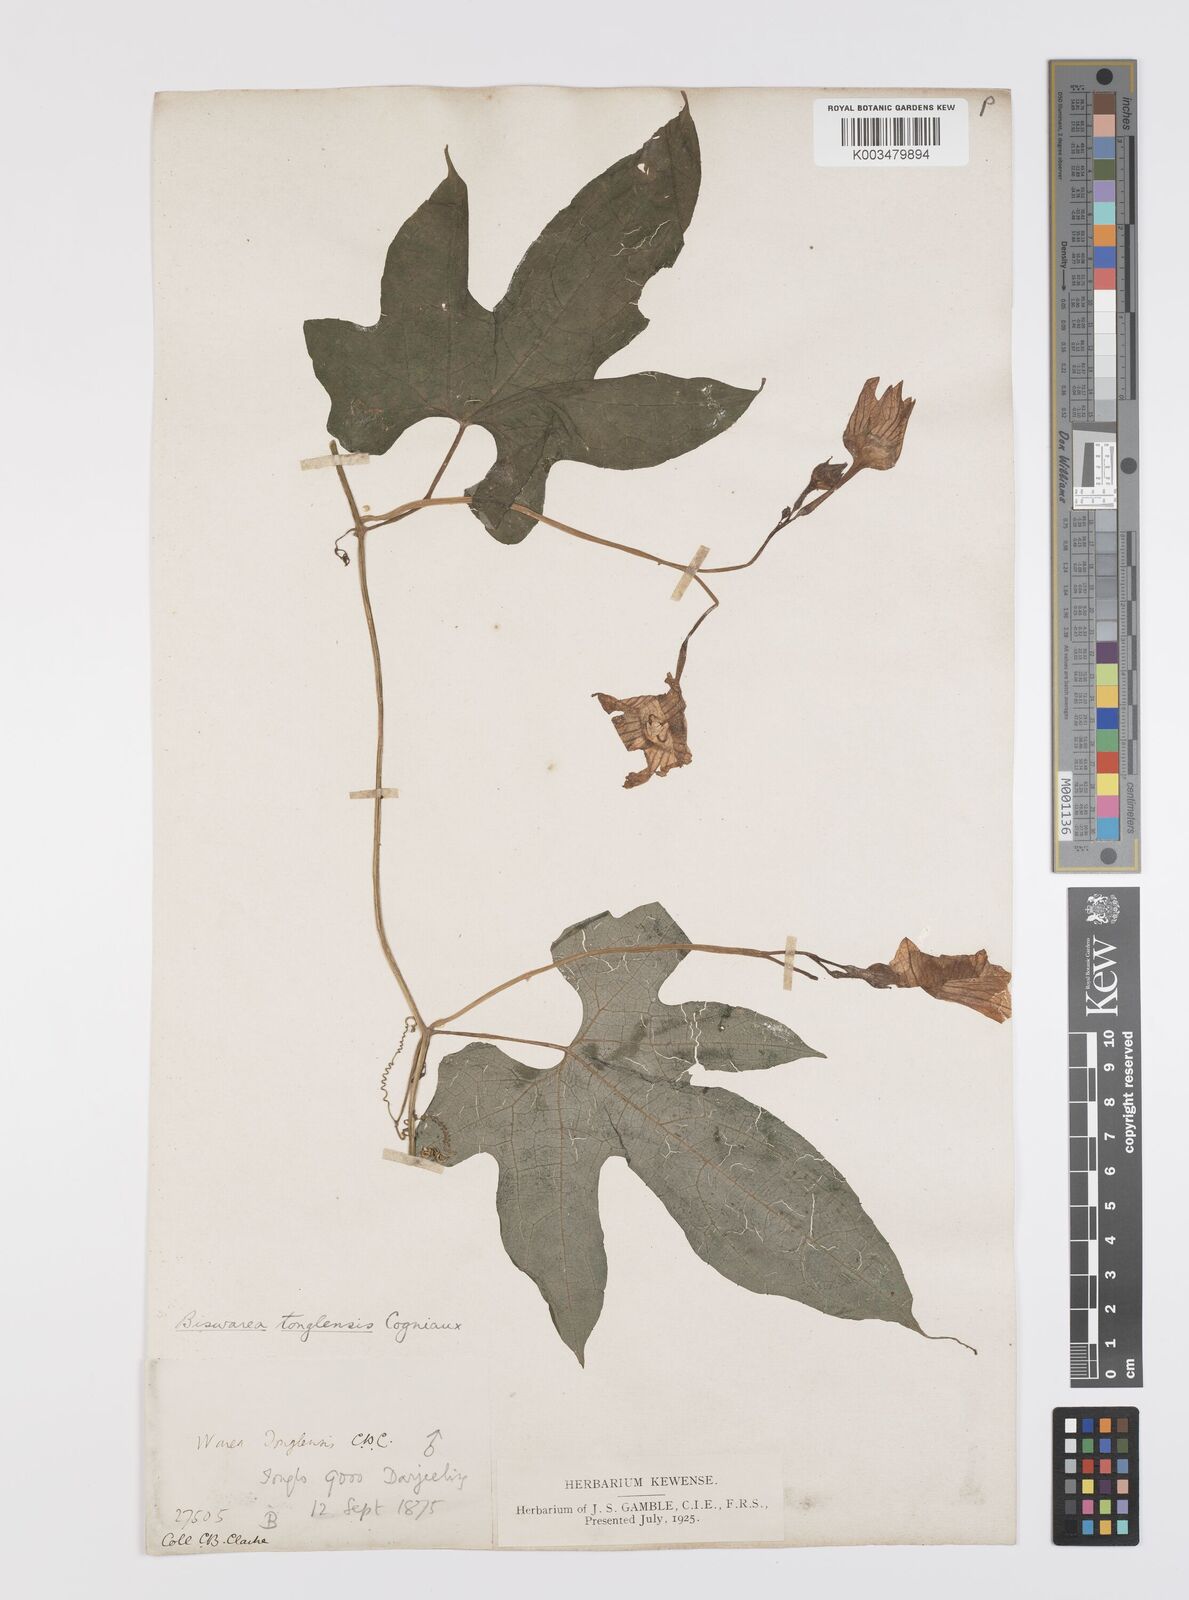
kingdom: Plantae
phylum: Tracheophyta
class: Magnoliopsida
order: Cucurbitales
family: Cucurbitaceae
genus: Benincasa
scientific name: Benincasa
